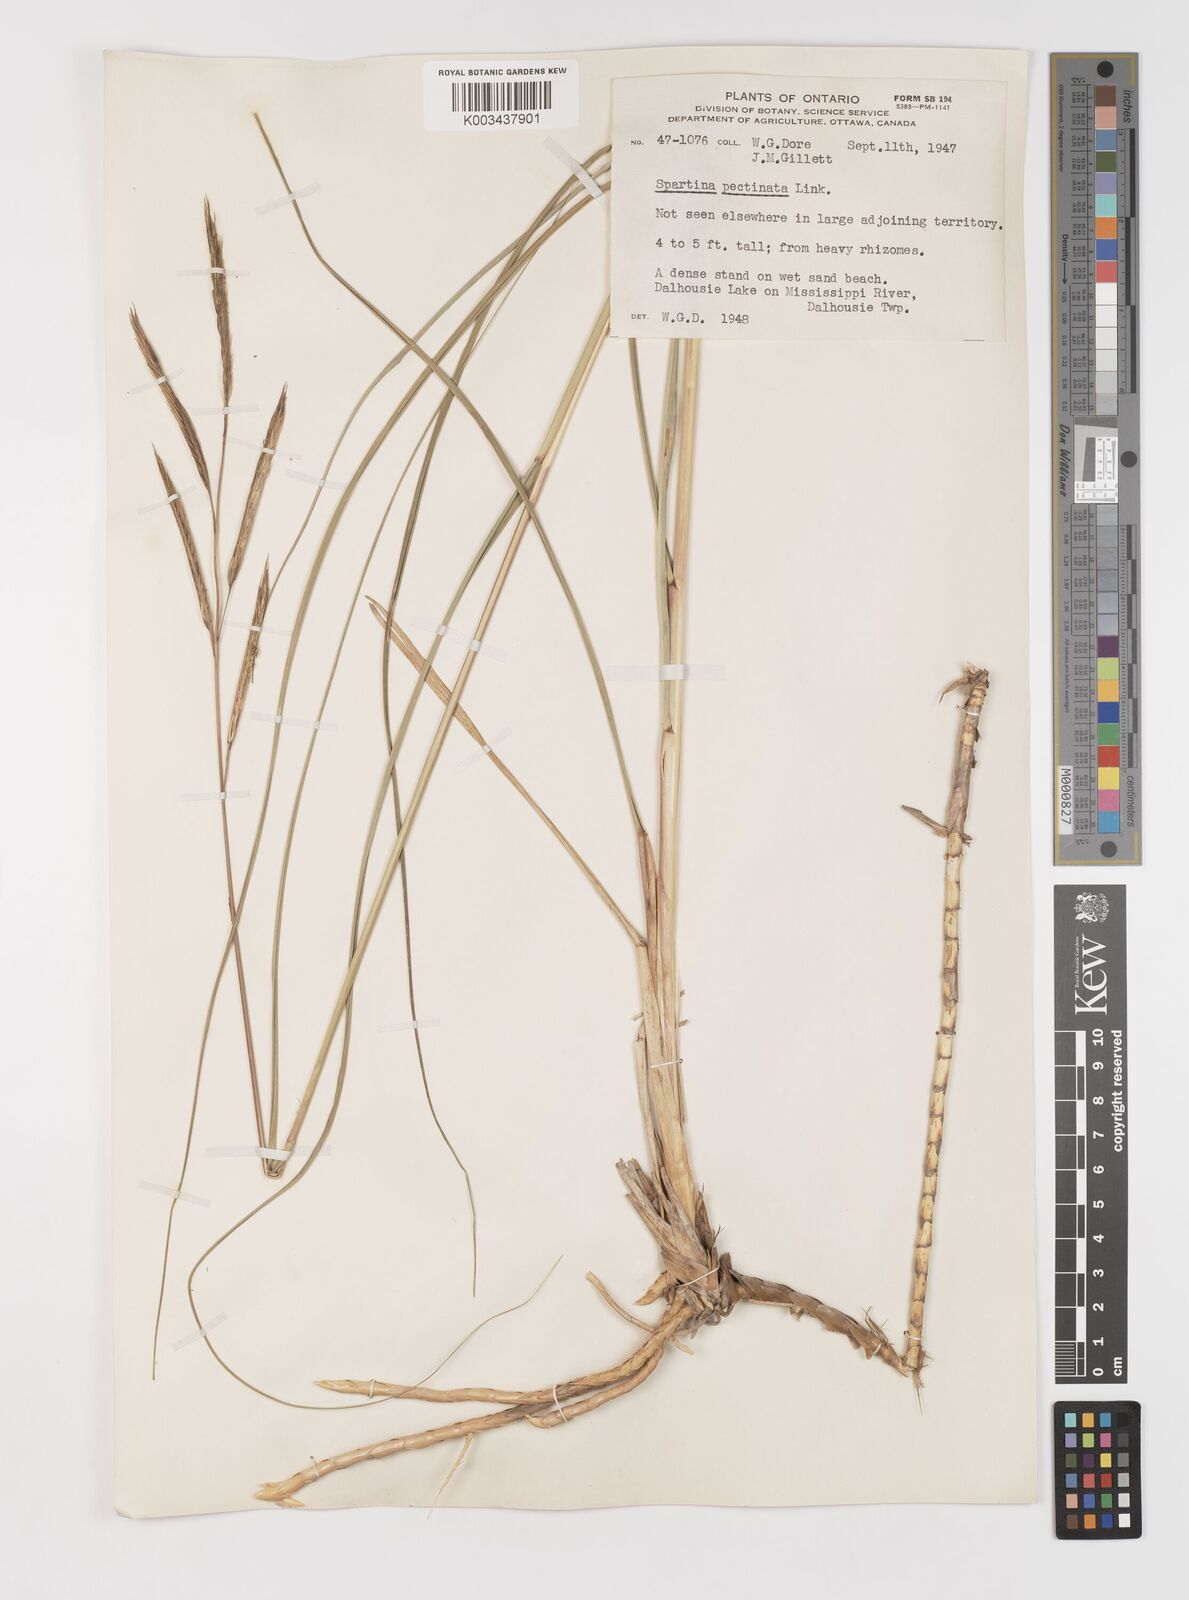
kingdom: Plantae
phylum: Tracheophyta
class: Liliopsida
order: Poales
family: Poaceae
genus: Sporobolus
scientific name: Sporobolus michauxianus
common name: Freshwater cordgrass
